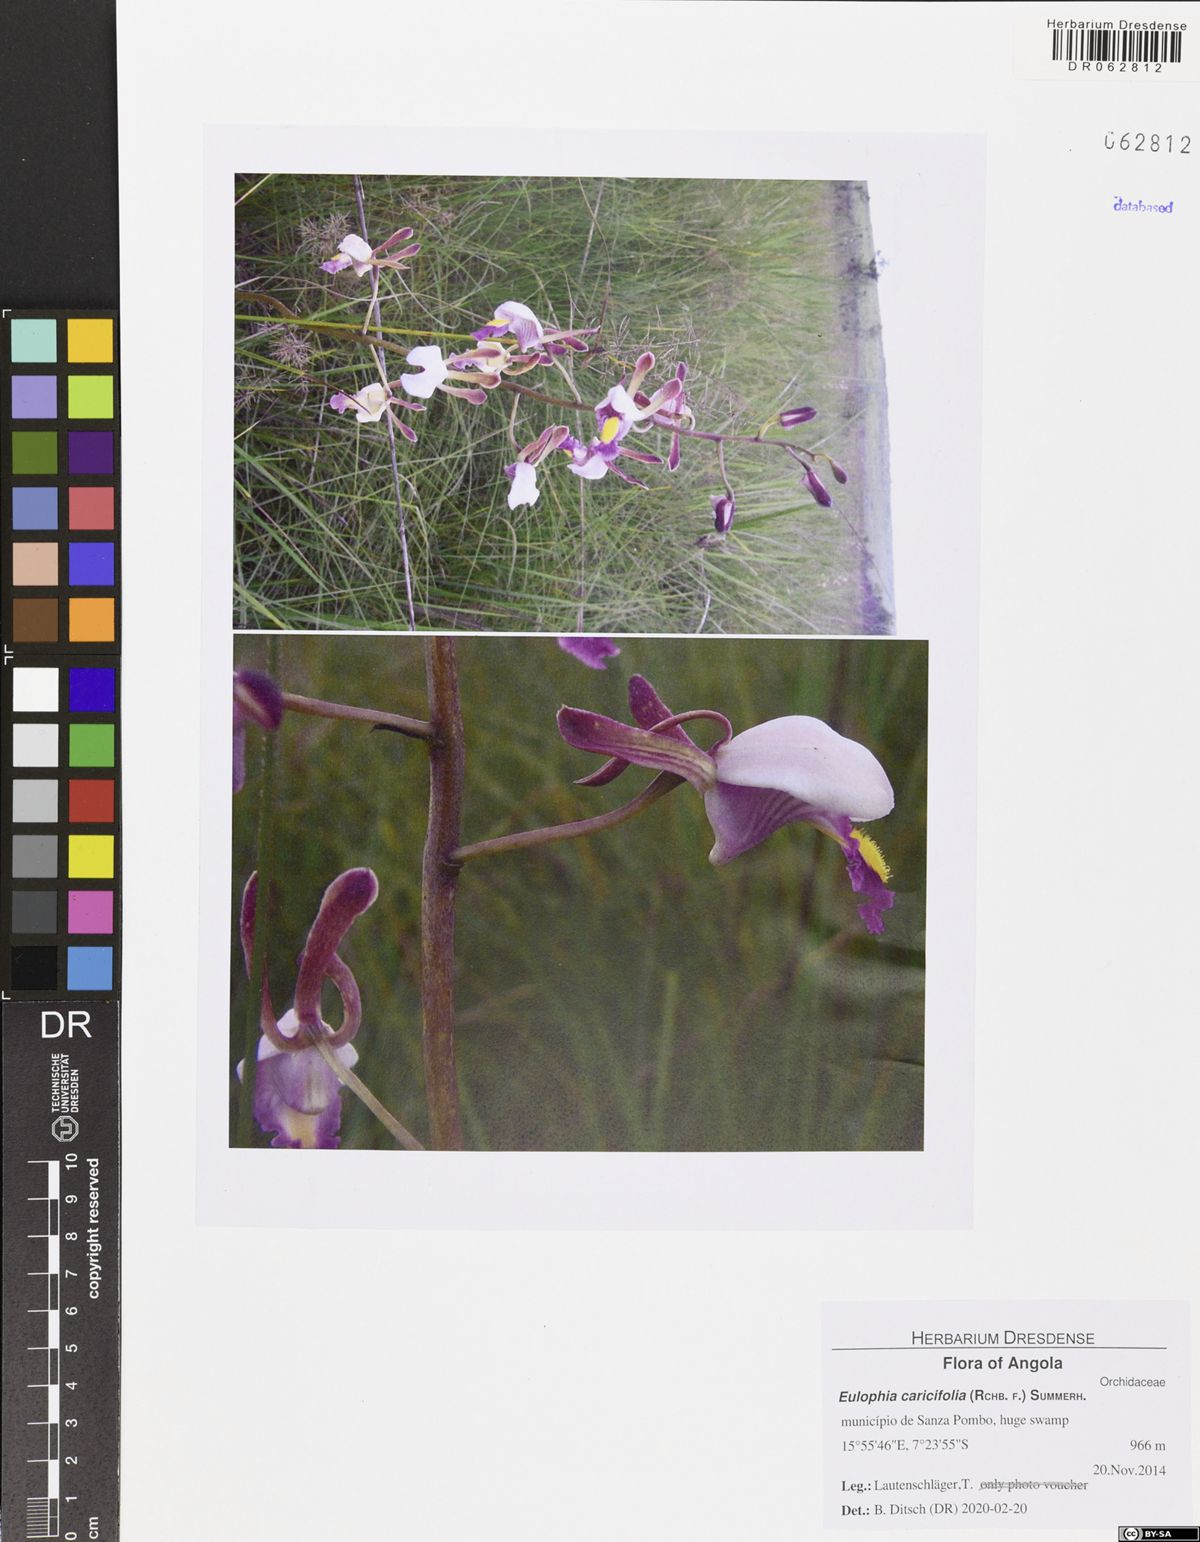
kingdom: Plantae
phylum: Tracheophyta
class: Liliopsida
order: Asparagales
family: Orchidaceae
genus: Eulophia
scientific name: Eulophia caricifolia
